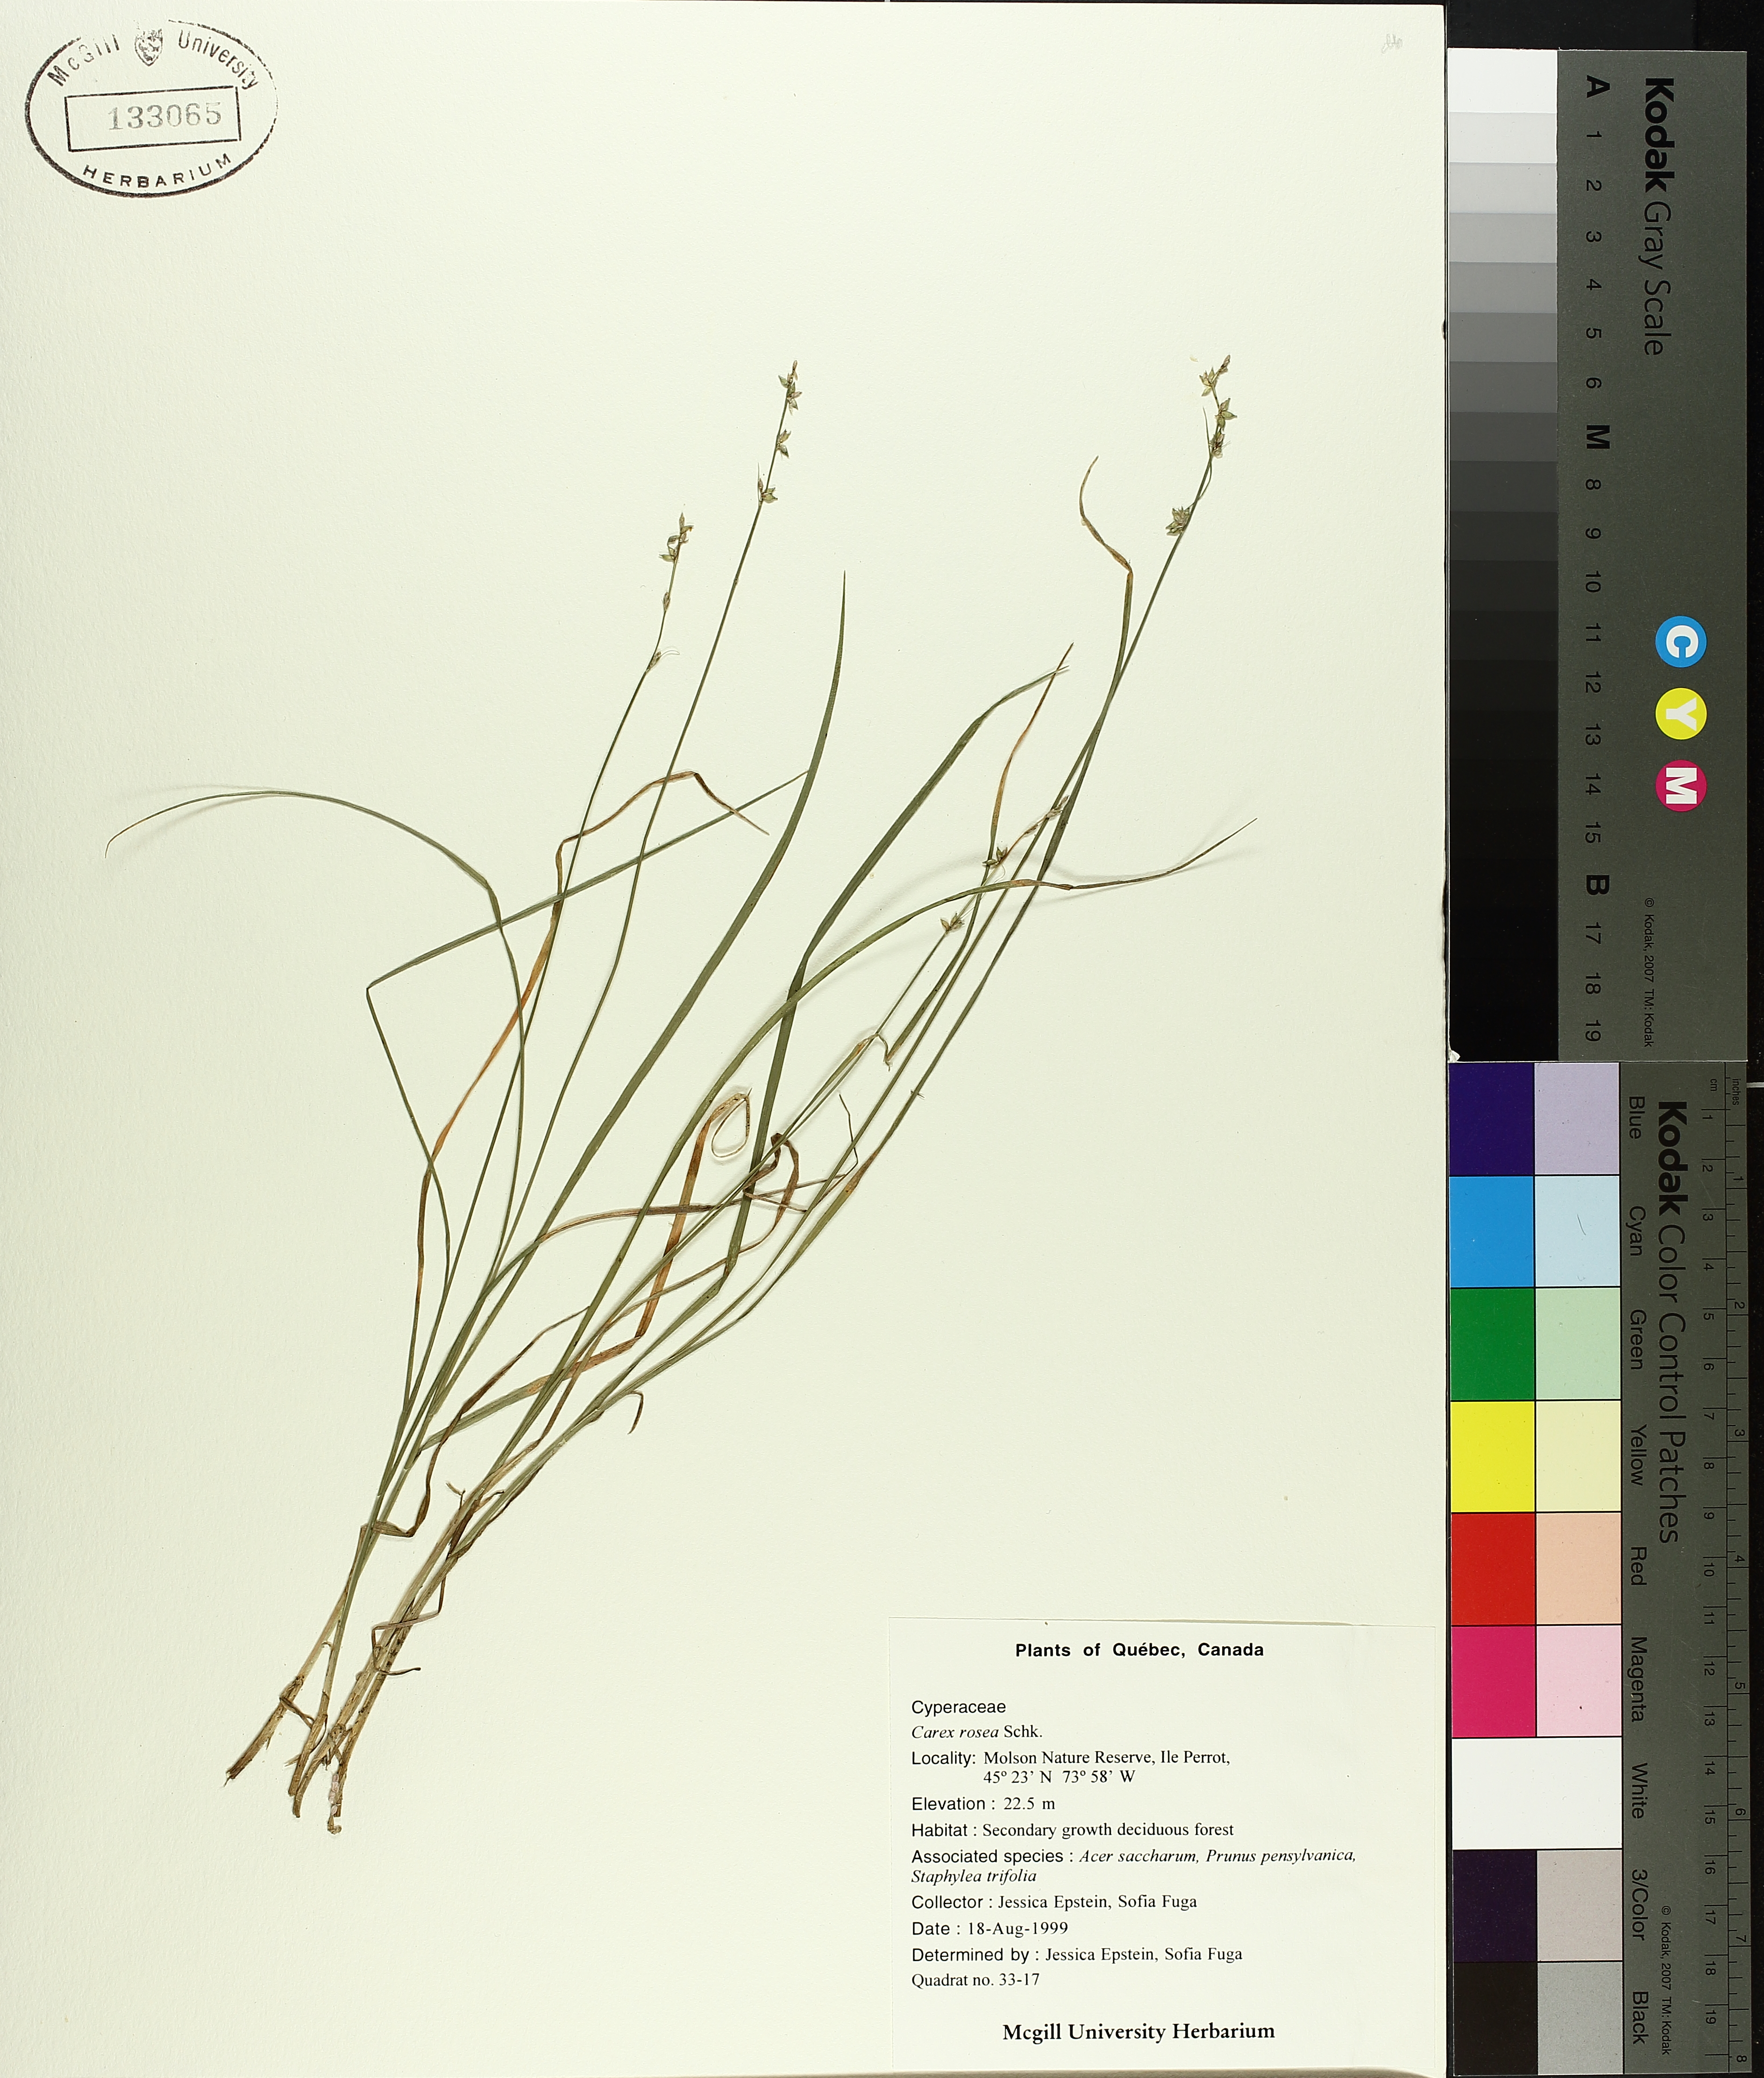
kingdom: Plantae
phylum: Tracheophyta
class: Liliopsida
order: Poales
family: Cyperaceae
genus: Carex
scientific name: Carex rosea
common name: Curly-styled wood sedge
